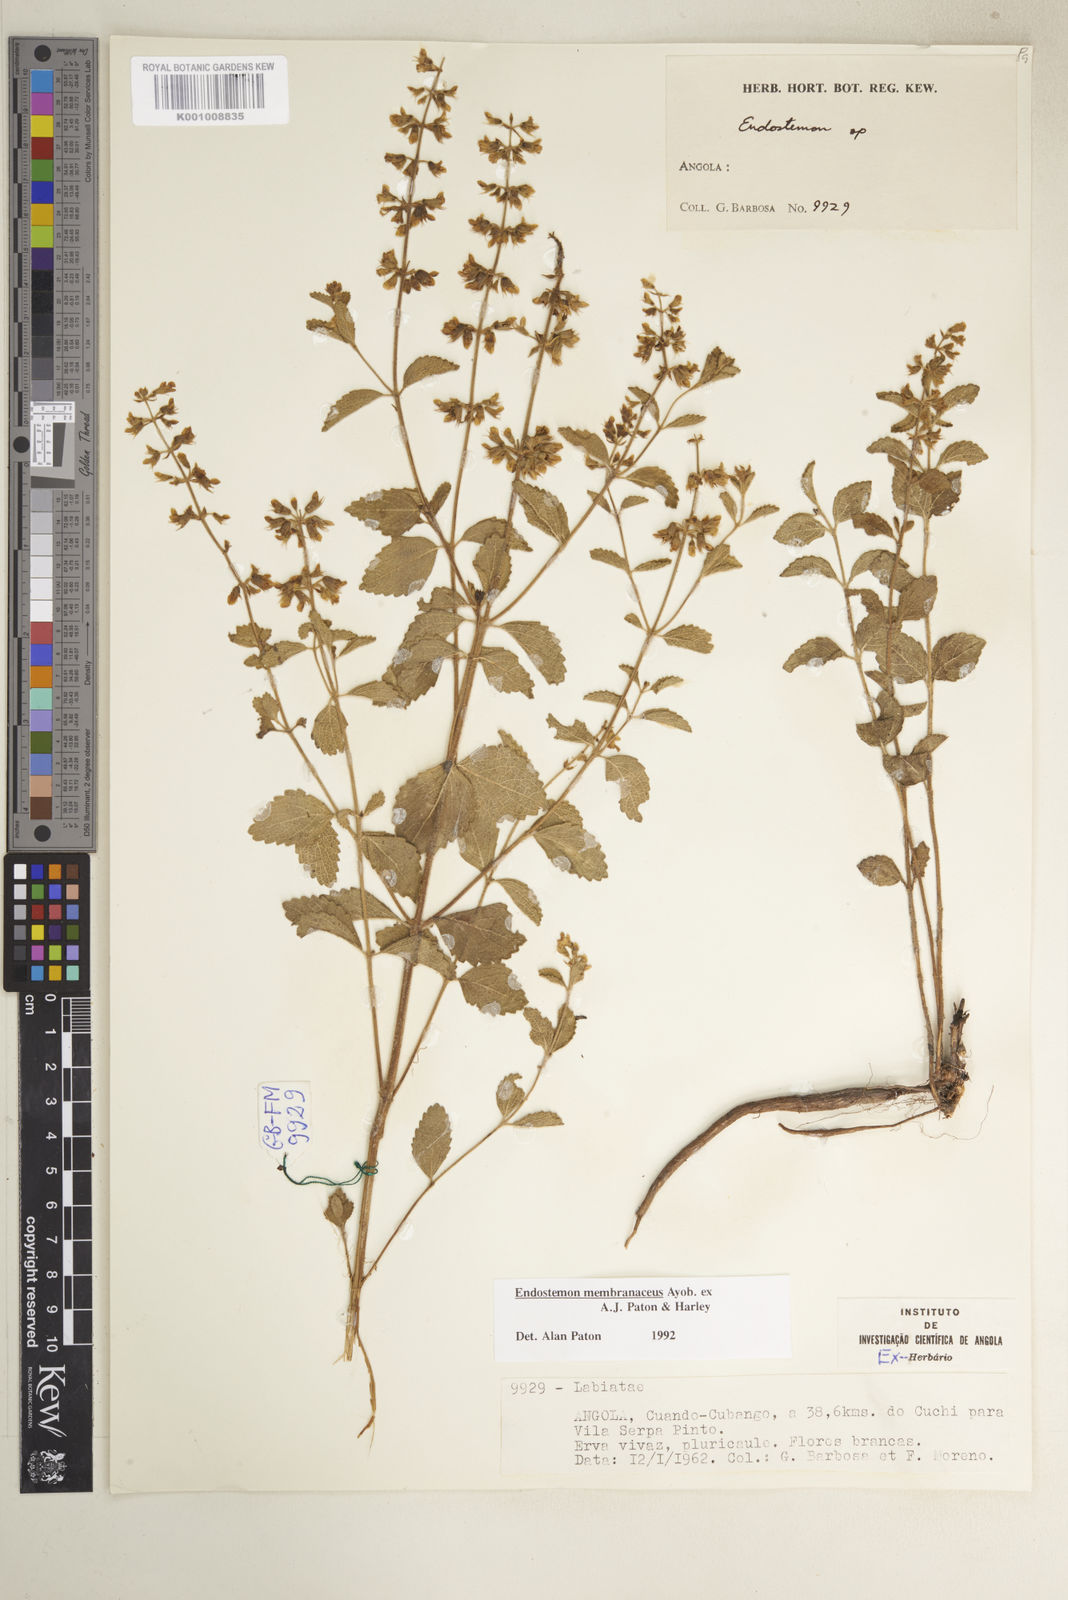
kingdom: Plantae
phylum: Tracheophyta
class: Magnoliopsida
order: Lamiales
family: Lamiaceae
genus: Endostemon
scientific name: Endostemon membranaceus
